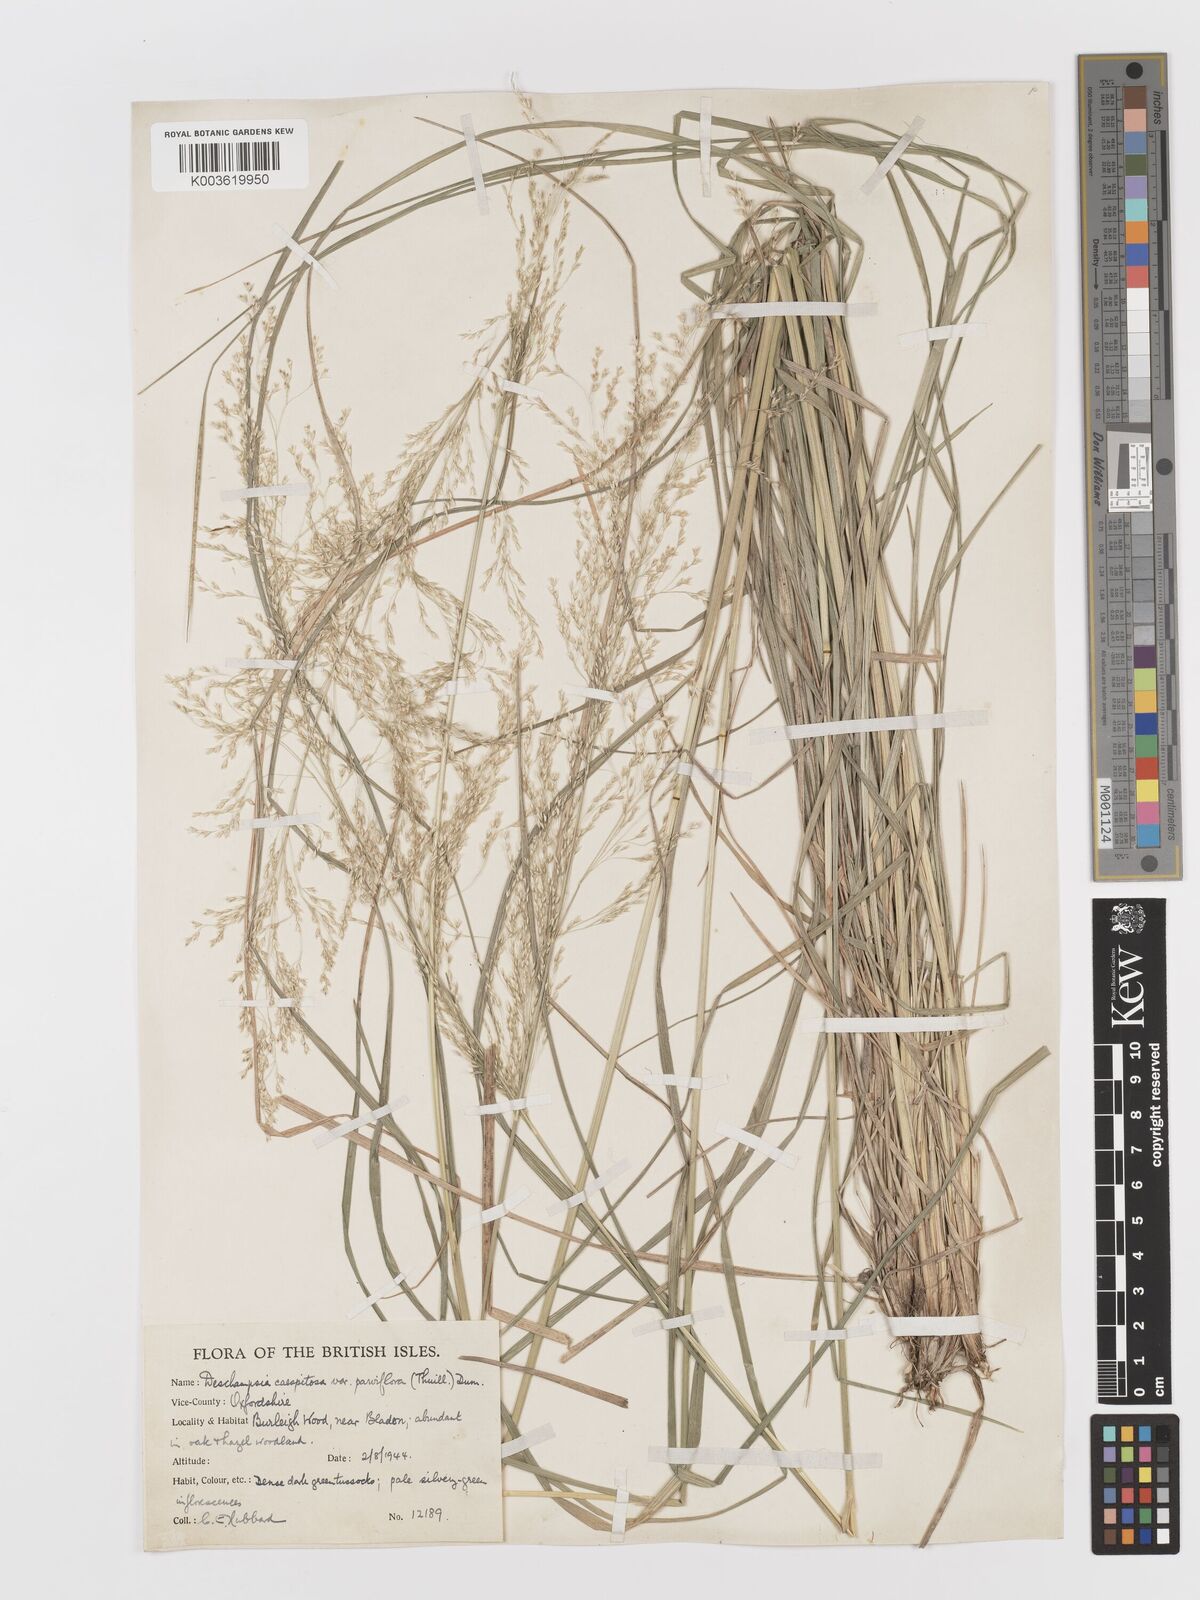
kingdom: Plantae
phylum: Tracheophyta
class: Liliopsida
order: Poales
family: Poaceae
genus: Deschampsia
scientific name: Deschampsia
